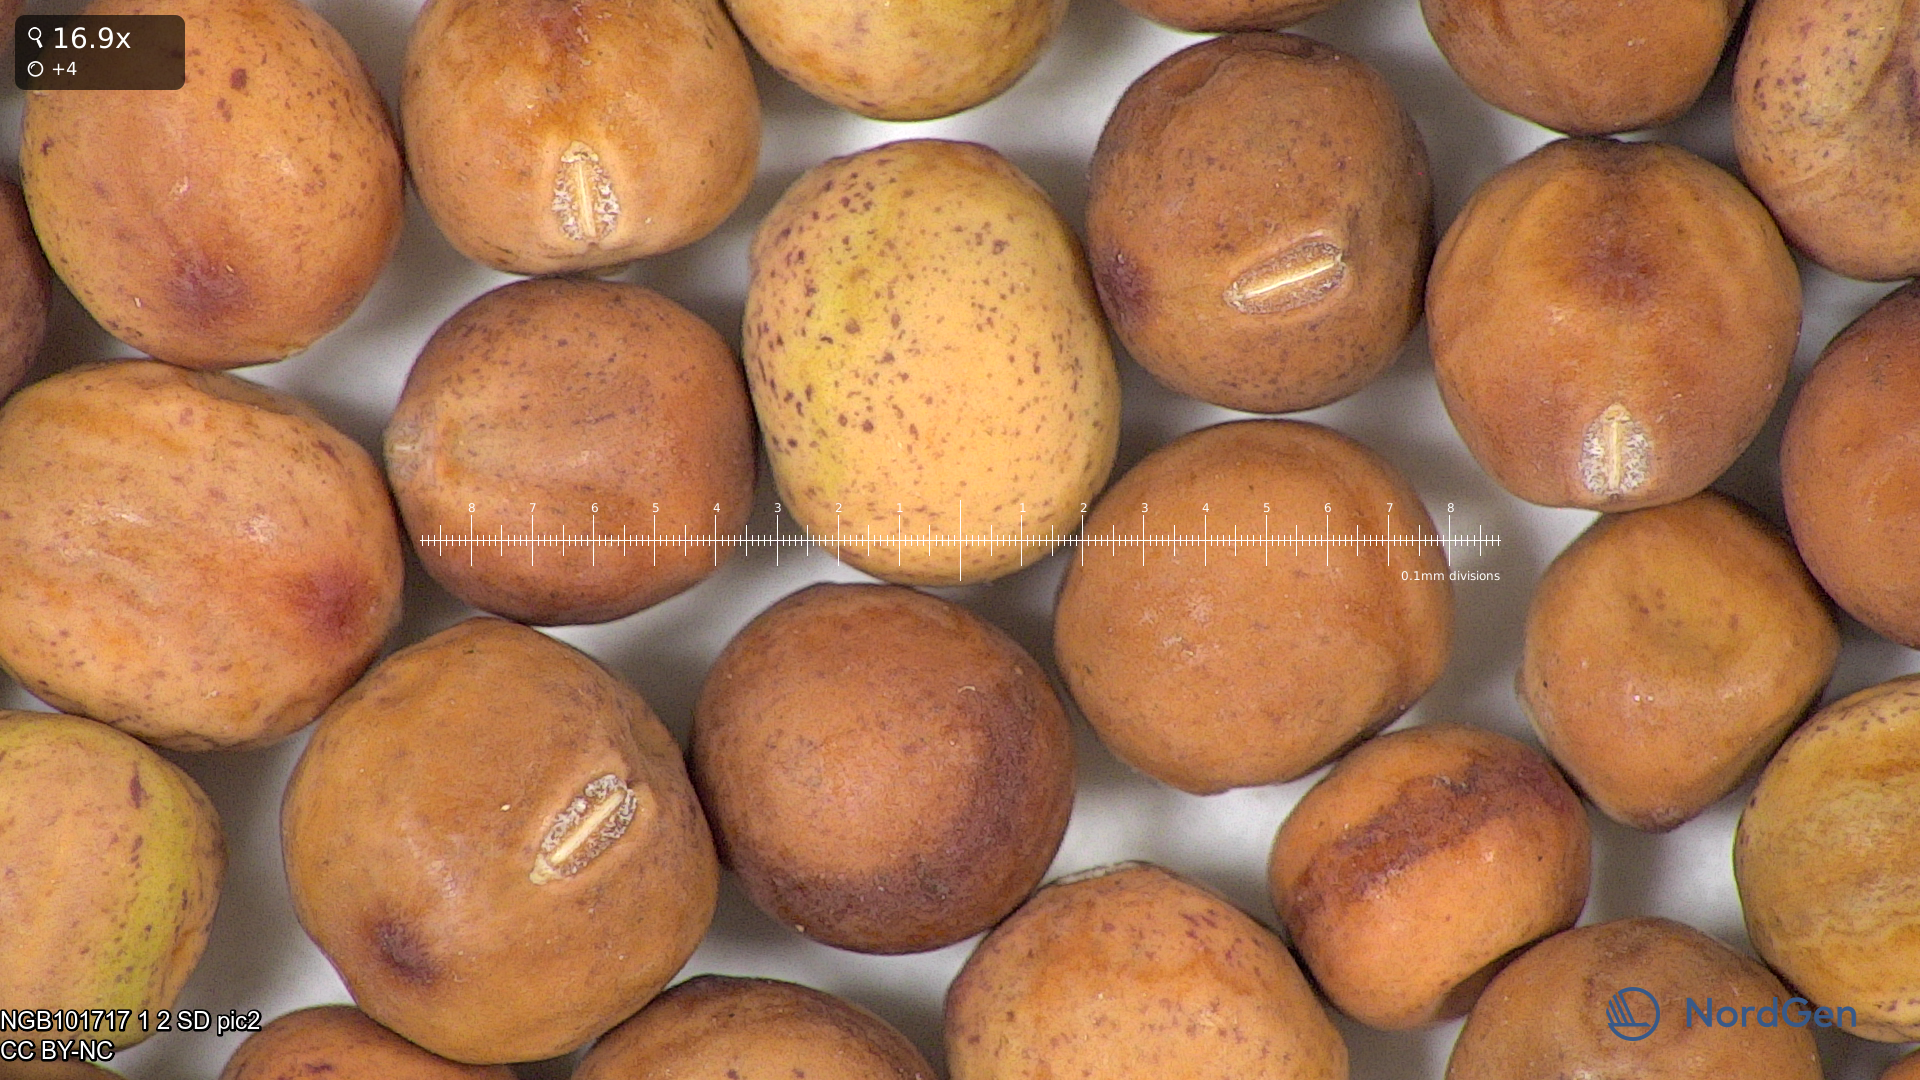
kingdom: Plantae
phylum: Tracheophyta
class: Magnoliopsida
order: Fabales
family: Fabaceae
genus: Lathyrus
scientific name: Lathyrus oleraceus
